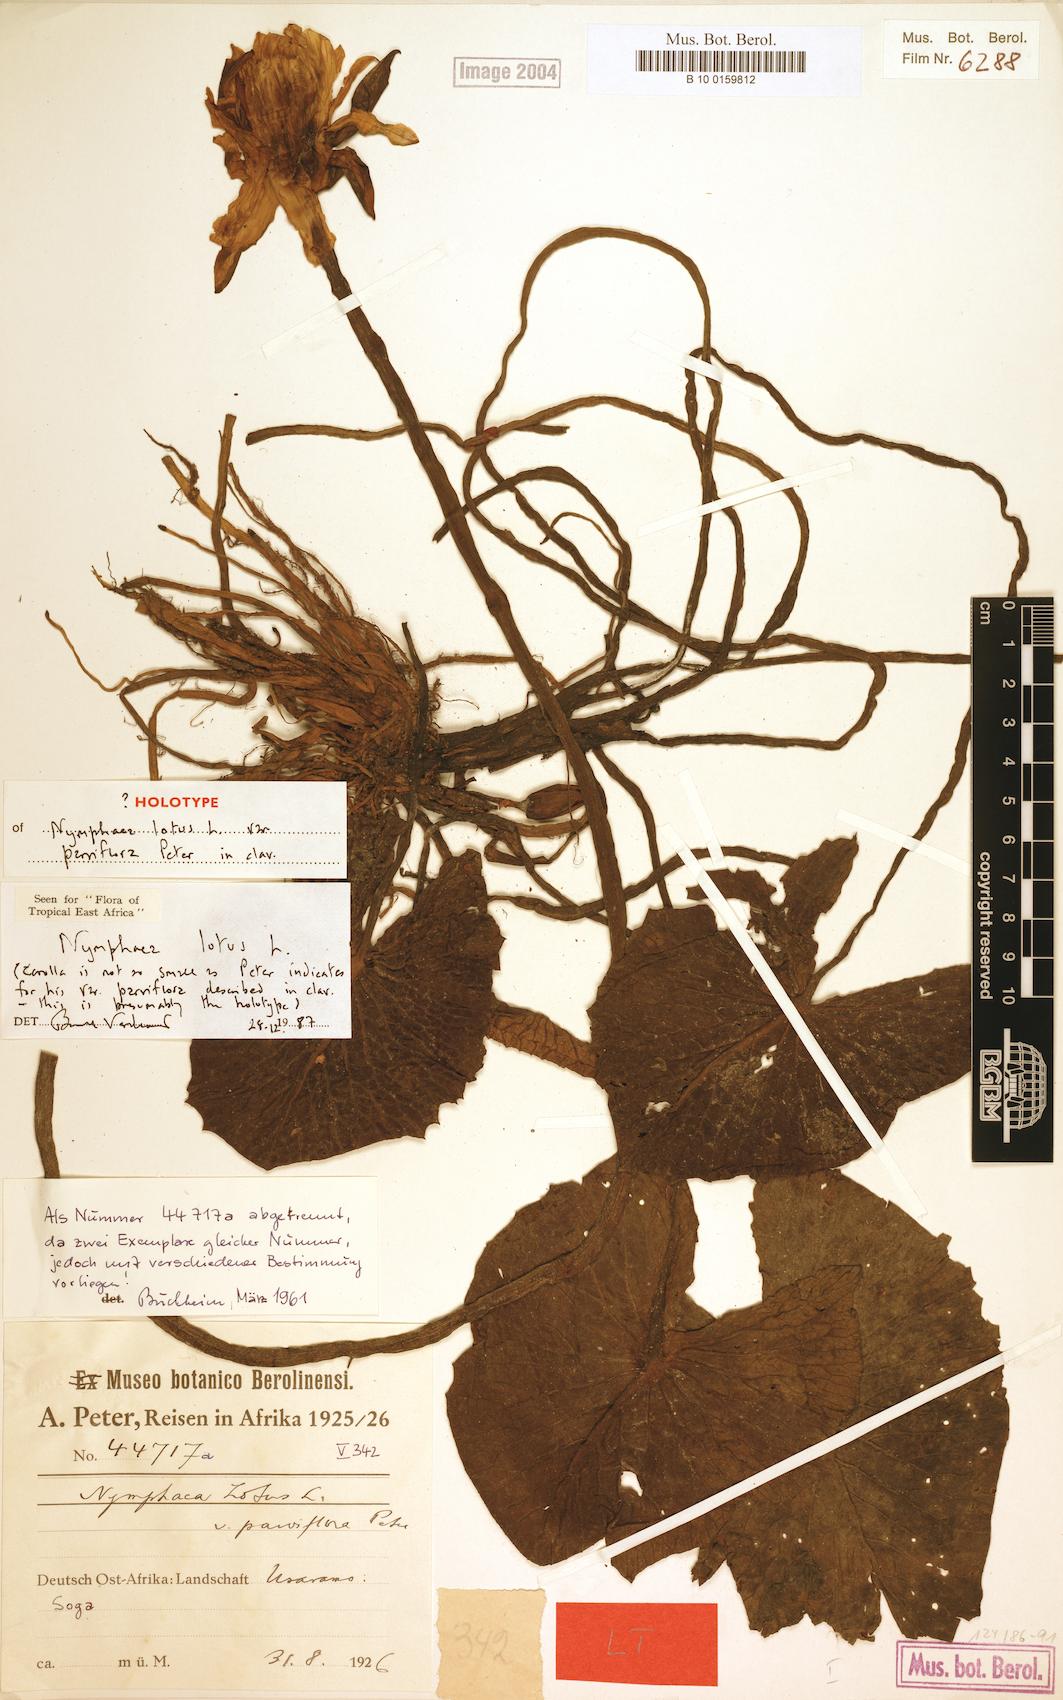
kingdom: Plantae
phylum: Tracheophyta
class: Magnoliopsida
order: Nymphaeales
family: Nymphaeaceae
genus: Nymphaea
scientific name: Nymphaea lotus
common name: White egyptian lotus
